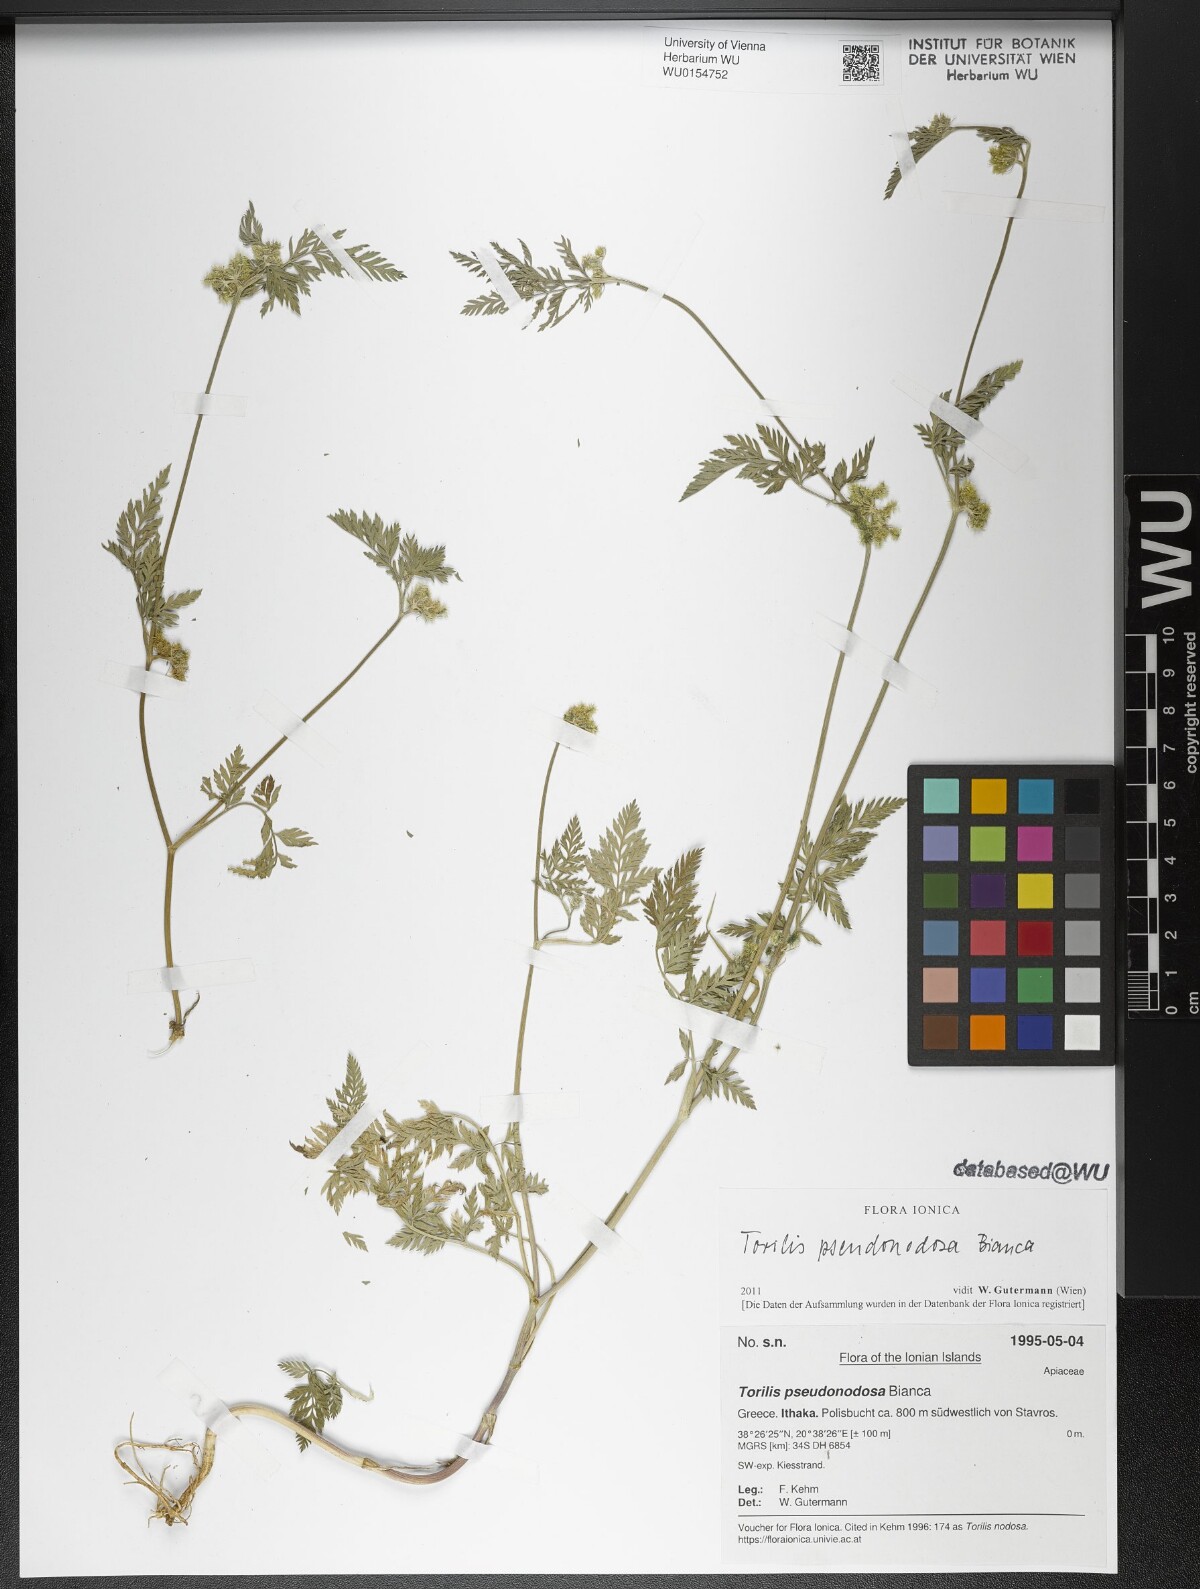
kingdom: Plantae
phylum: Tracheophyta
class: Magnoliopsida
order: Apiales
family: Apiaceae
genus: Torilis
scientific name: Torilis pseudonodosa
